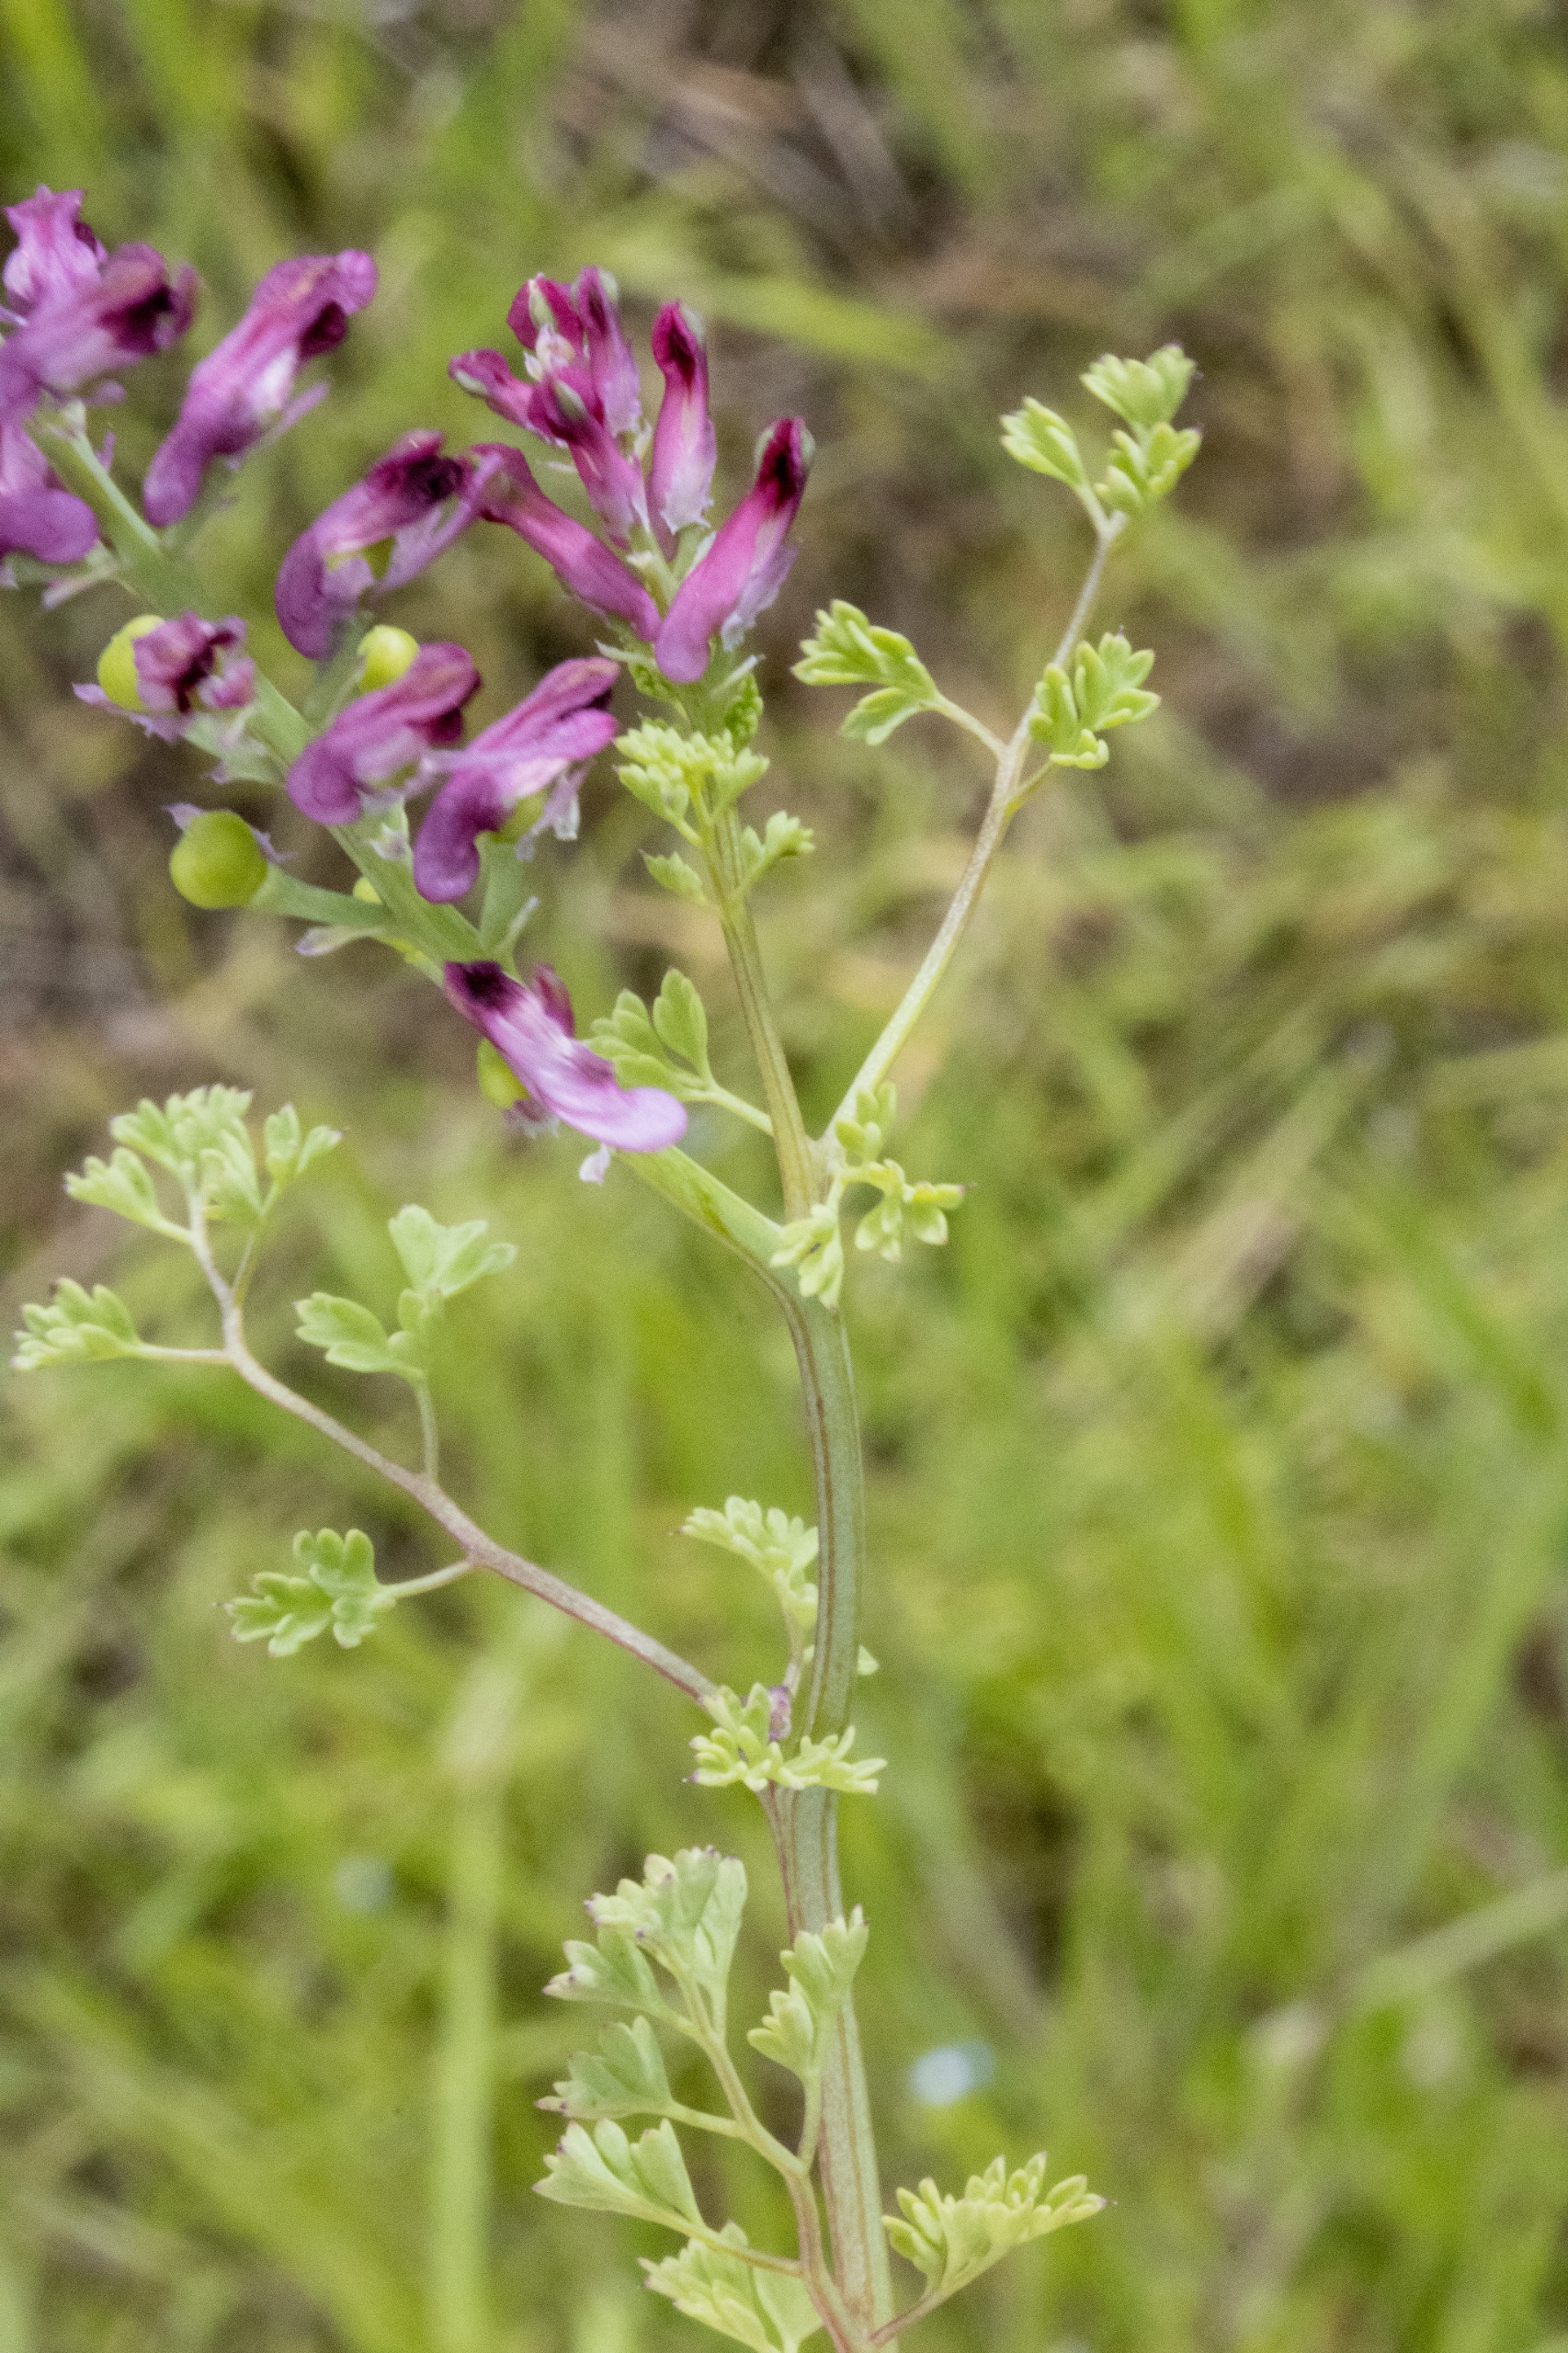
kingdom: Plantae
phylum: Tracheophyta
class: Magnoliopsida
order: Ranunculales
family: Papaveraceae
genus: Fumaria
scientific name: Fumaria officinalis
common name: Læge-jordrøg
